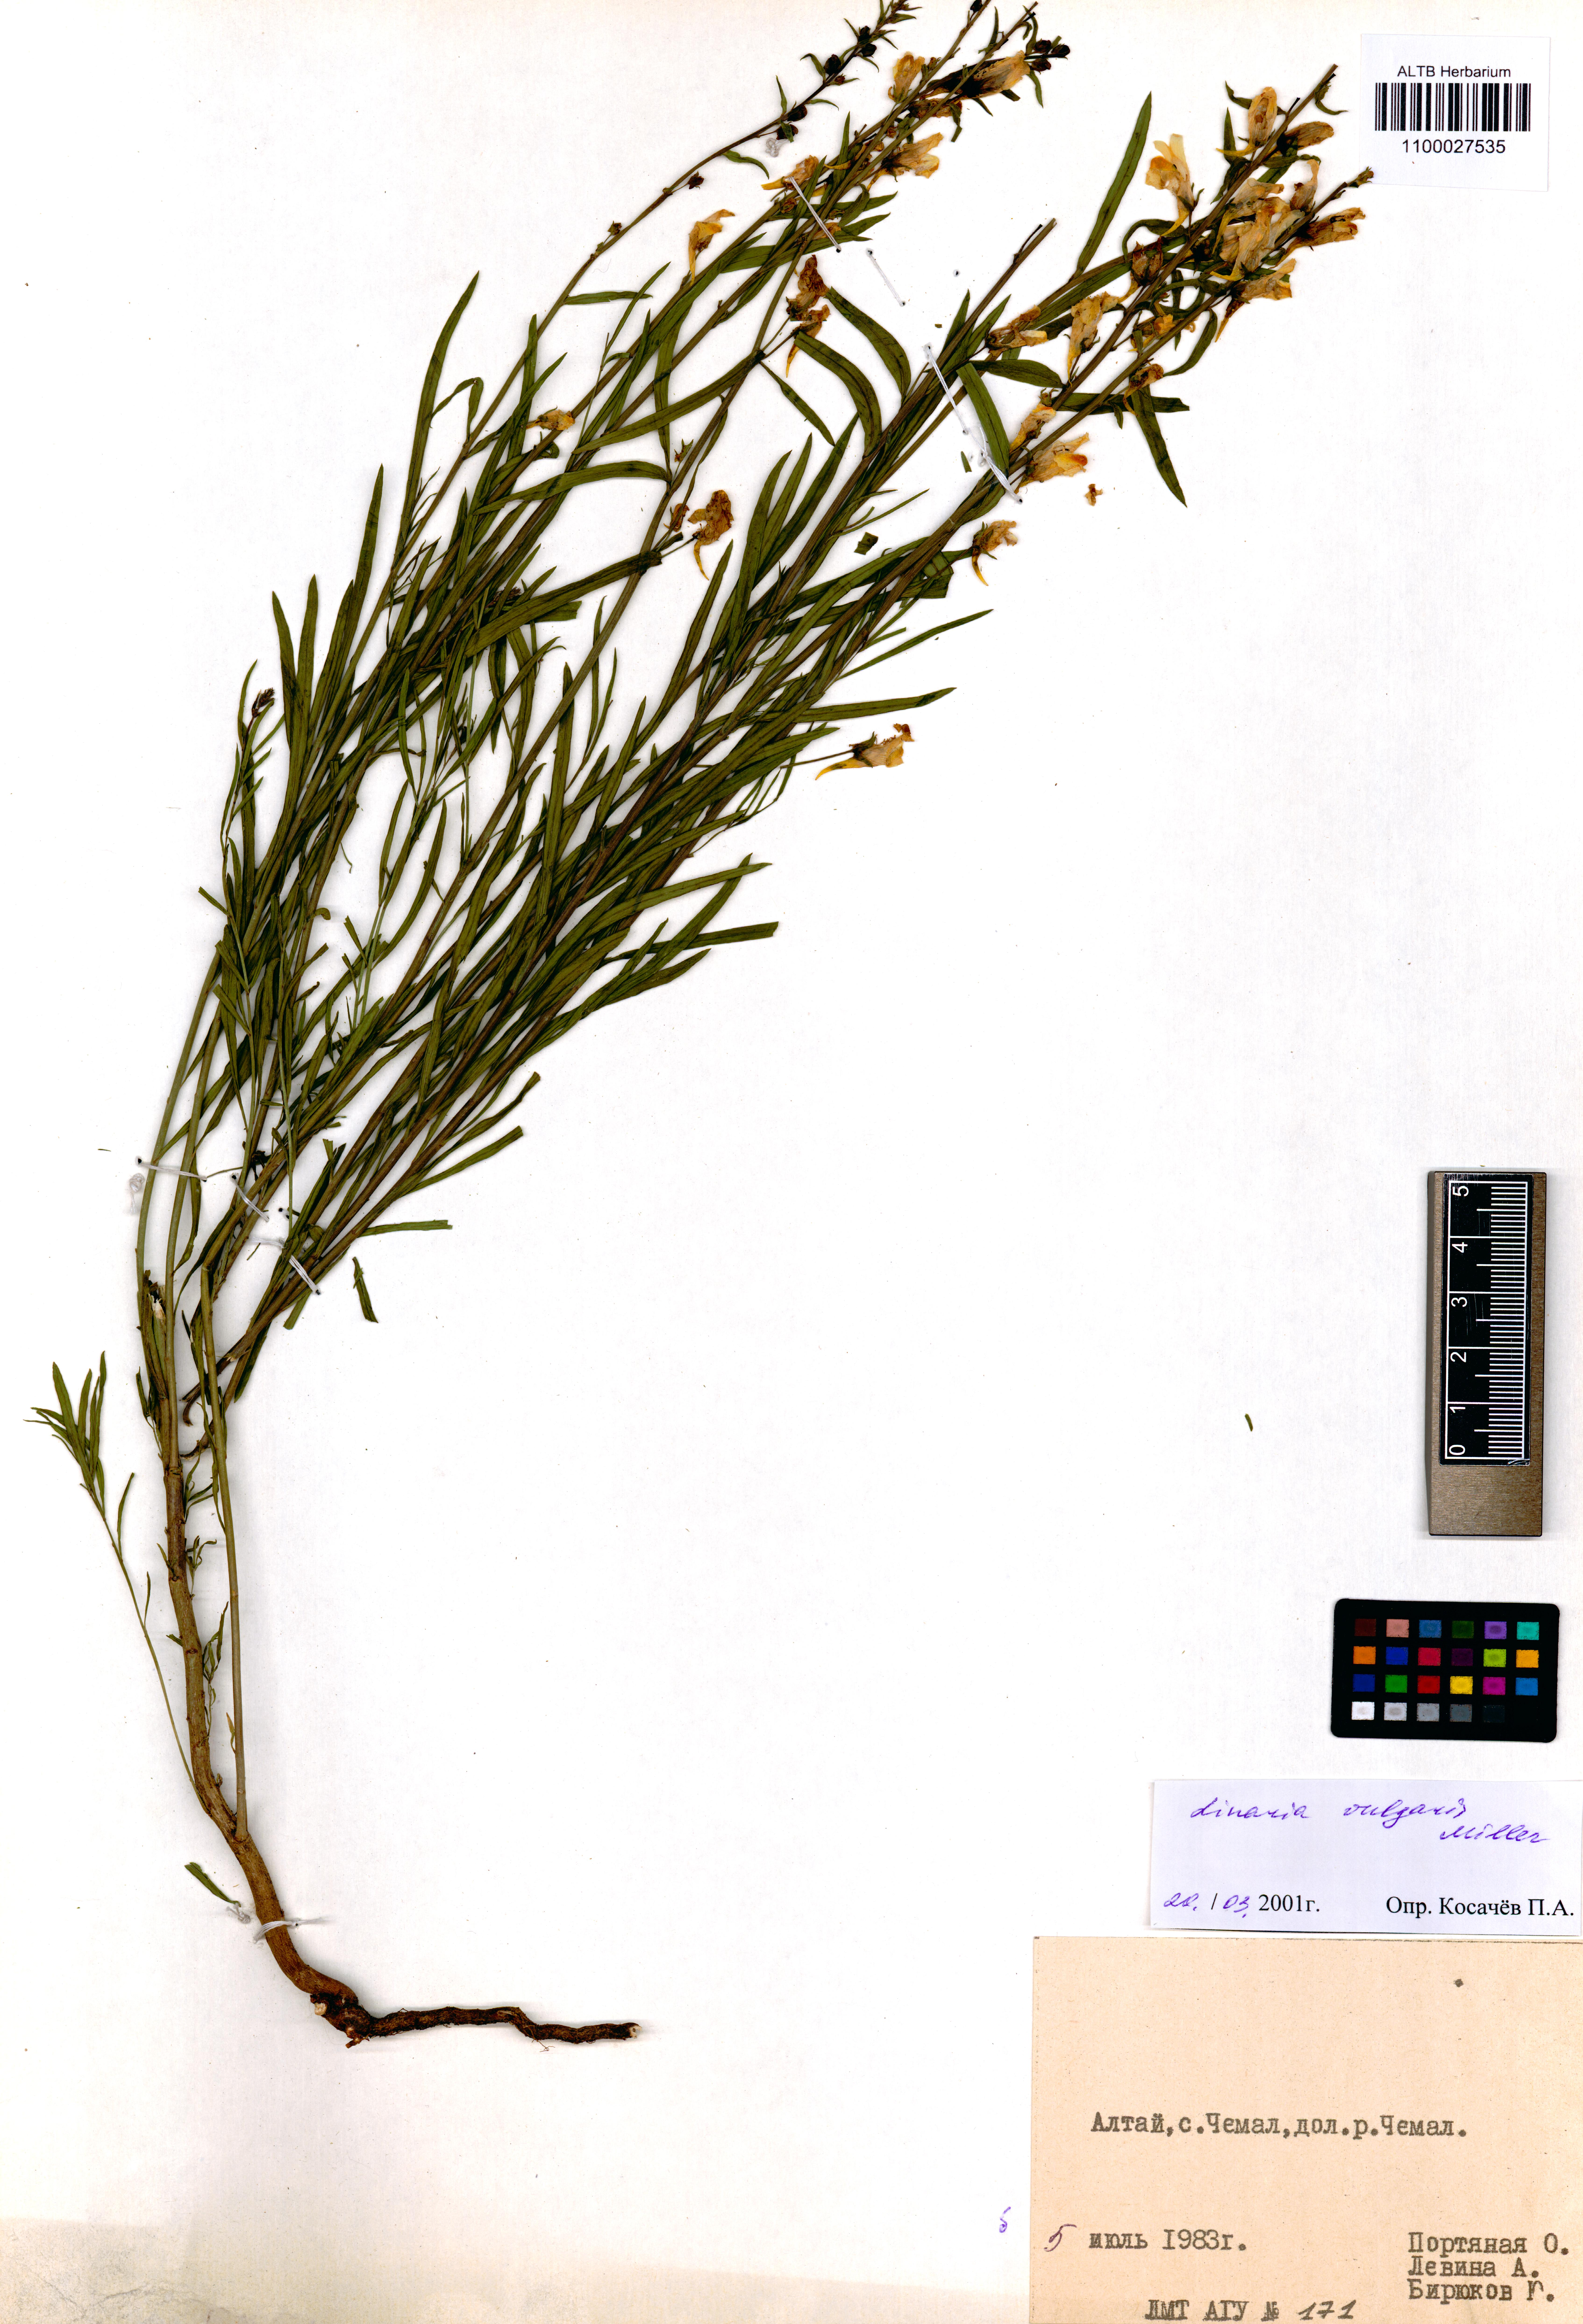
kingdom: Plantae
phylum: Tracheophyta
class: Magnoliopsida
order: Lamiales
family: Plantaginaceae
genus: Linaria
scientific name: Linaria vulgaris
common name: Butter and eggs
